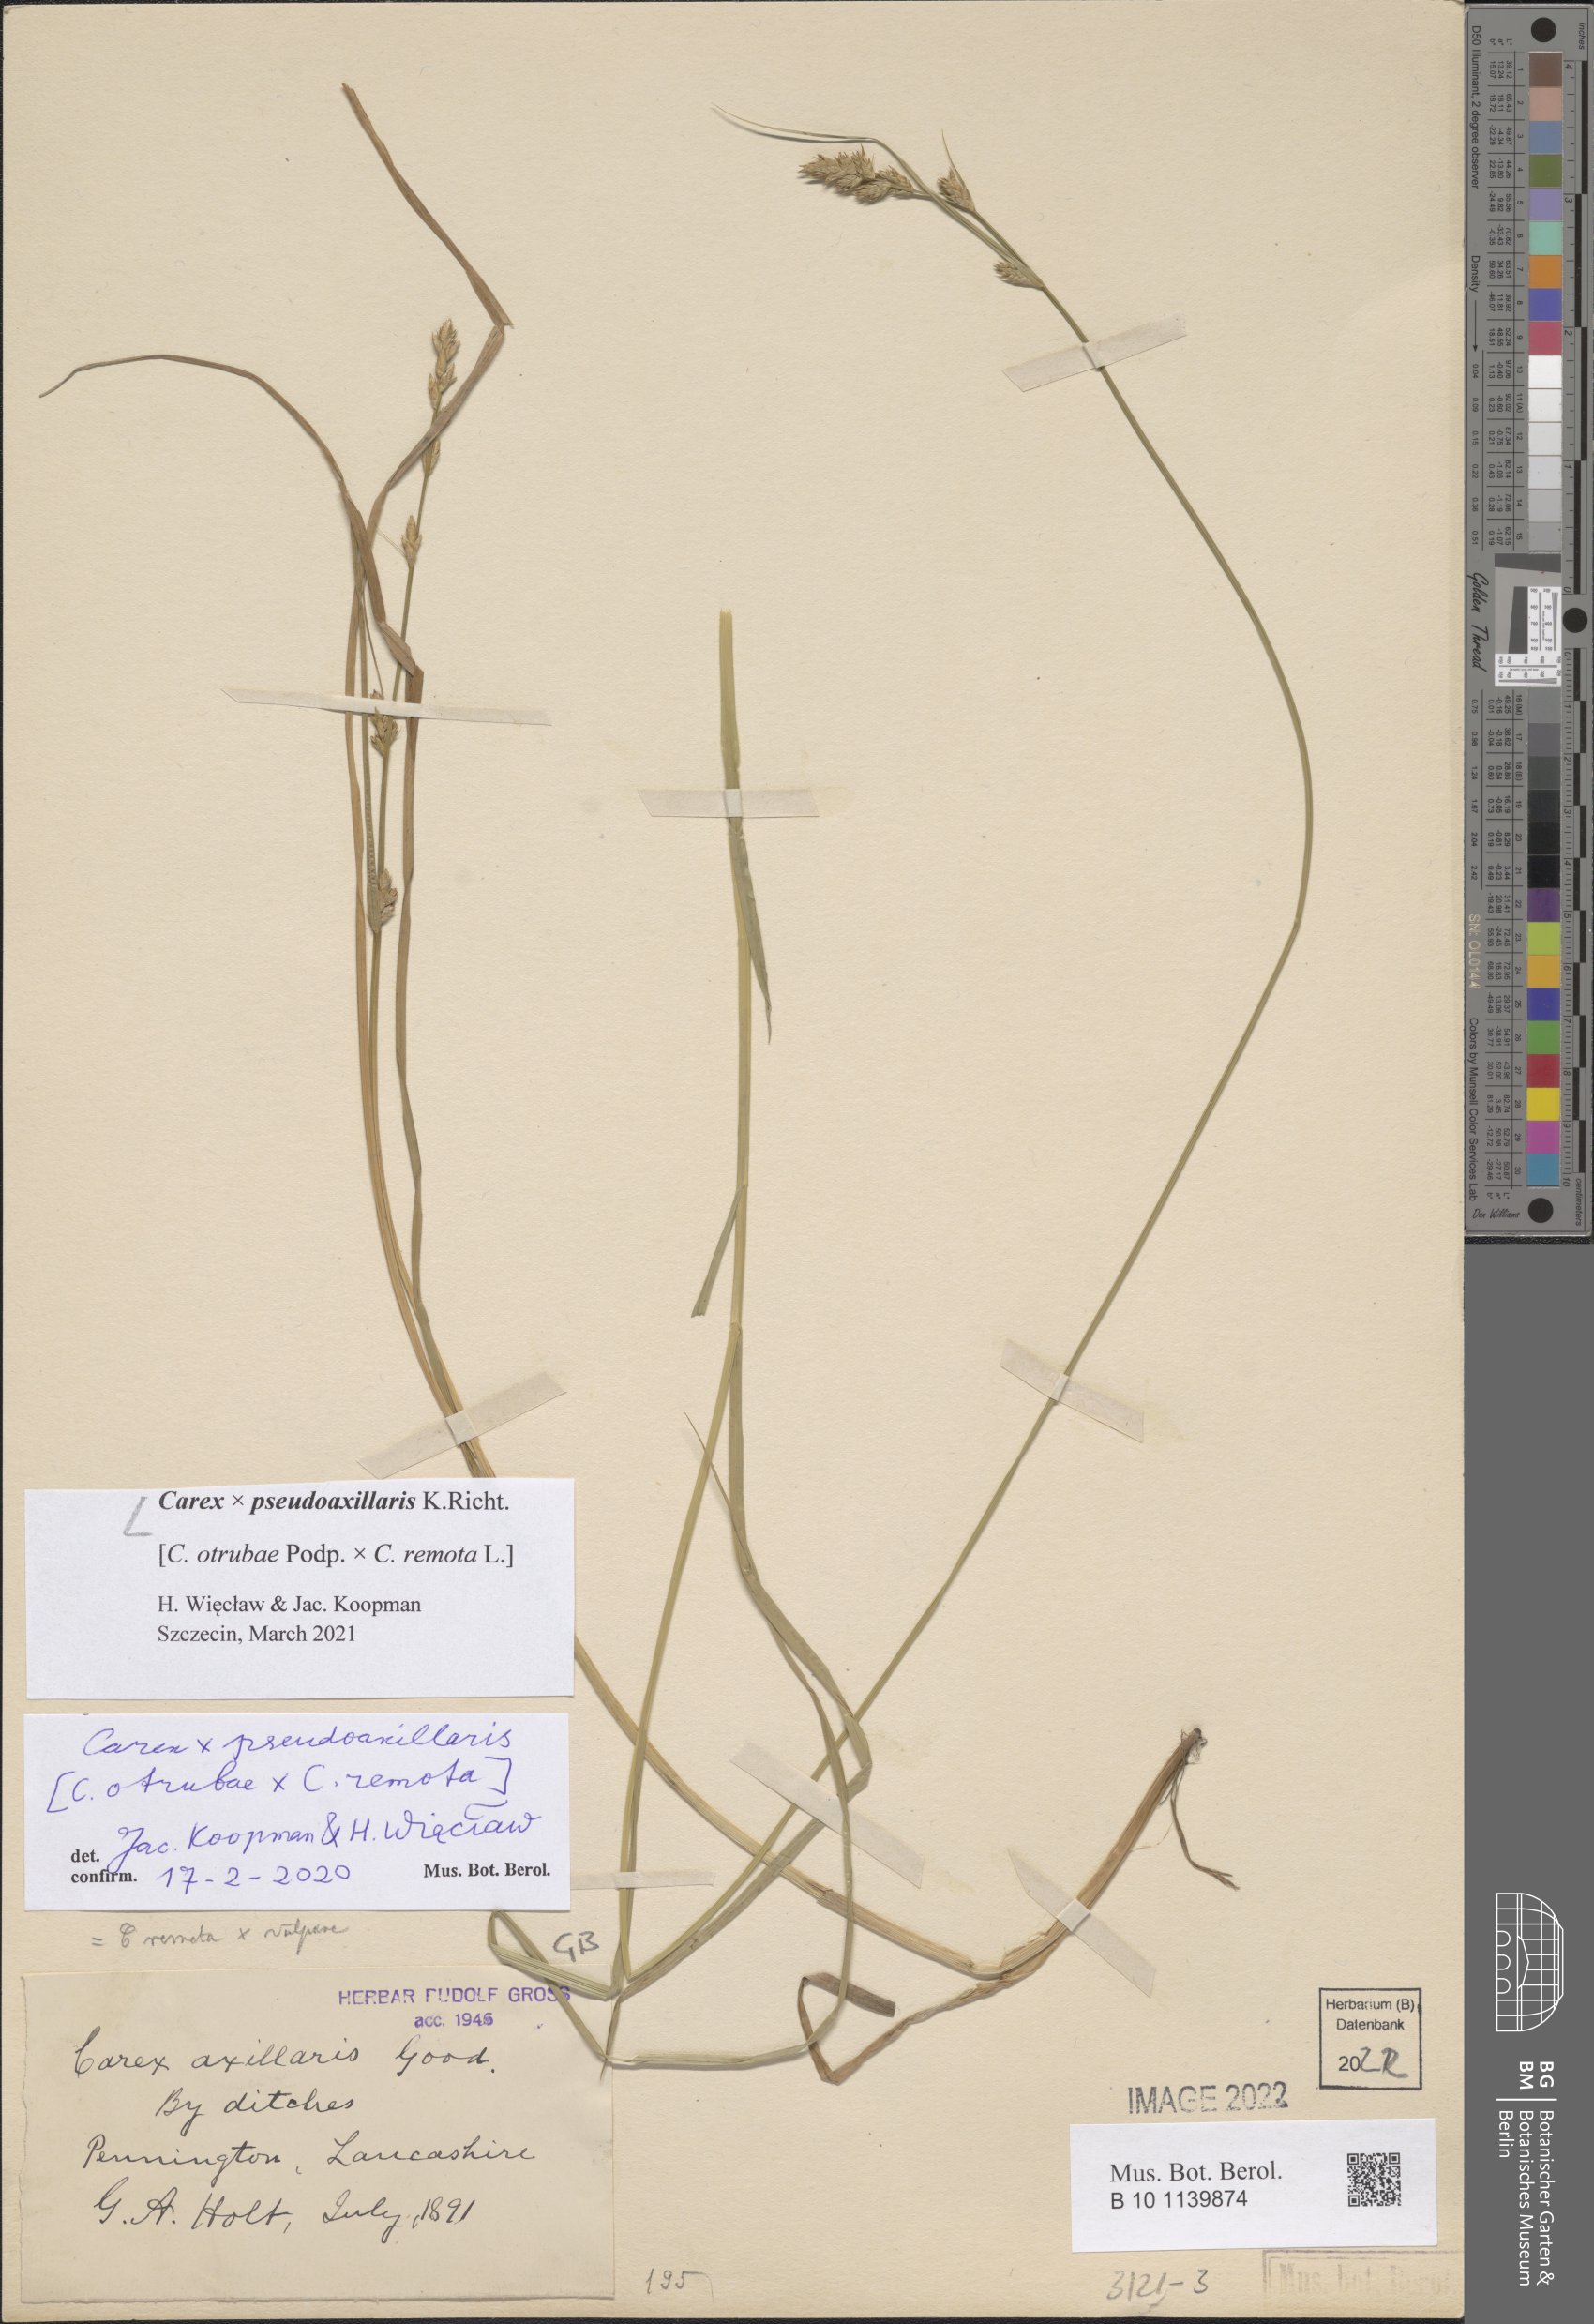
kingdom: Plantae
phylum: Tracheophyta
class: Liliopsida
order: Poales
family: Cyperaceae
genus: Carex
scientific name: Carex pseudoaxillaris
